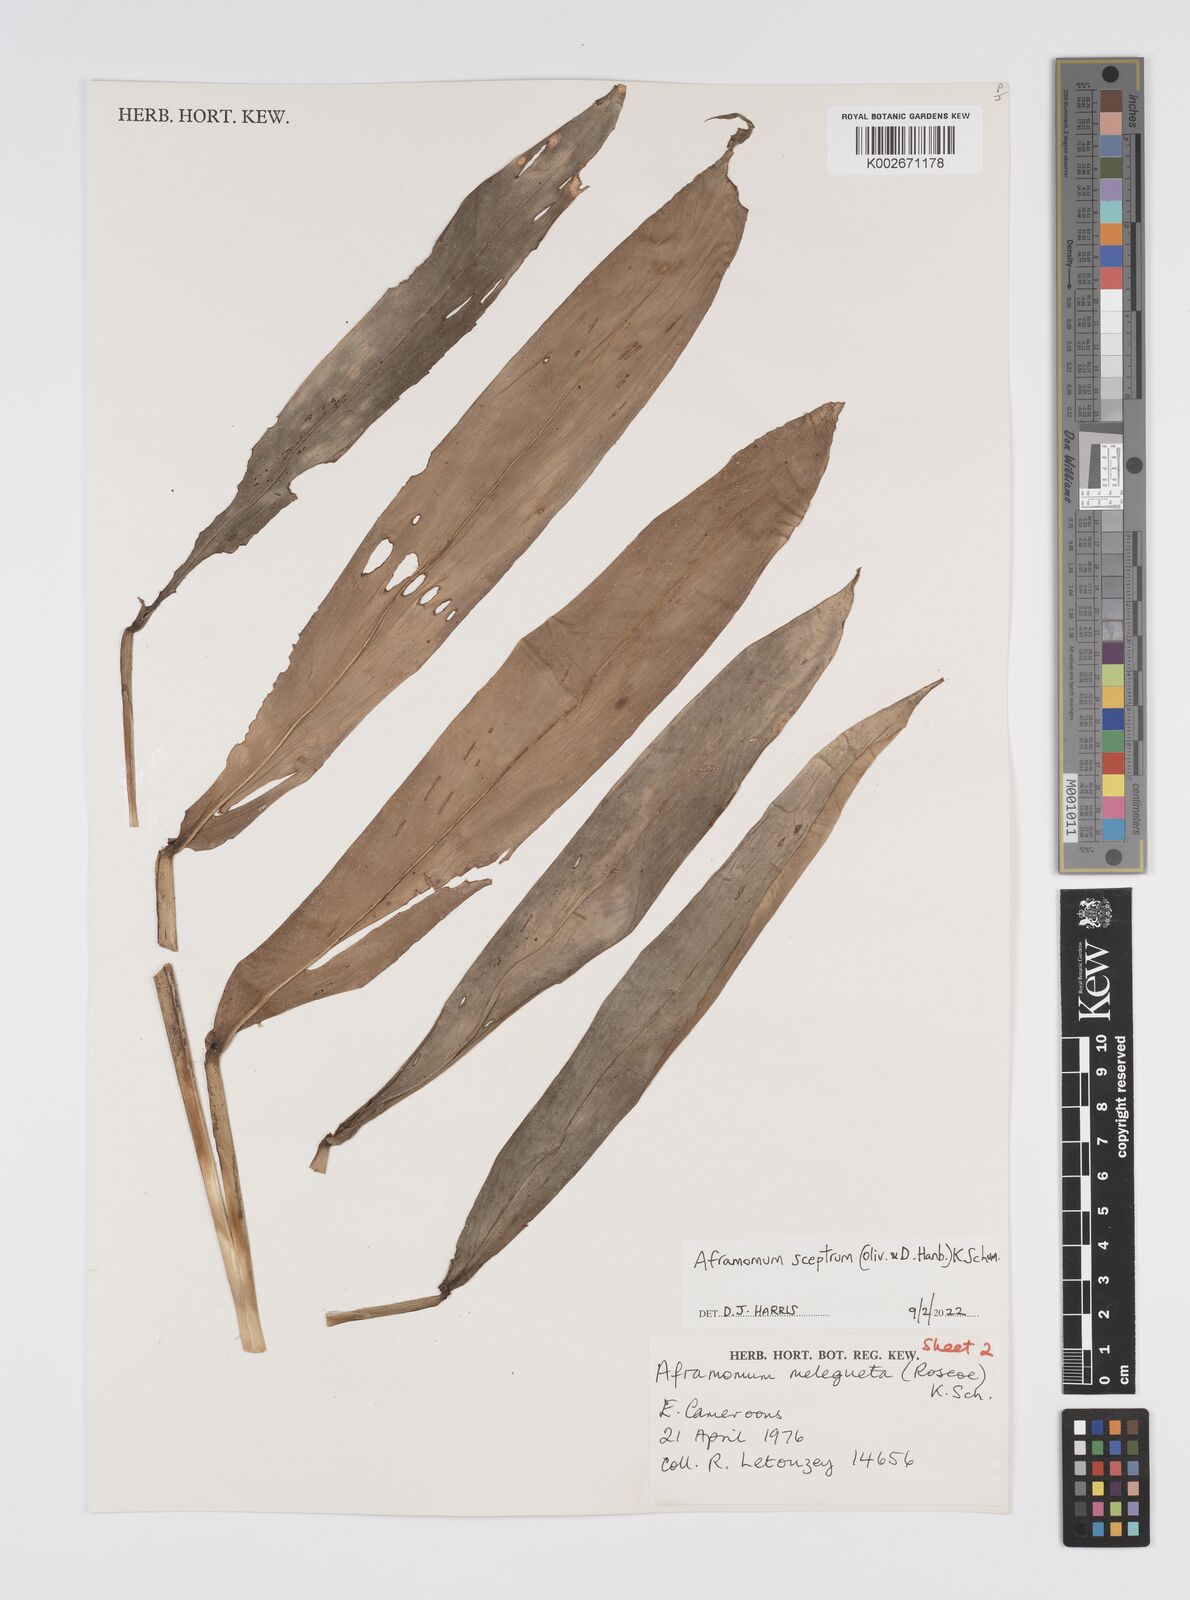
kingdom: Plantae
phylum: Tracheophyta
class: Liliopsida
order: Zingiberales
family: Zingiberaceae
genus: Aframomum
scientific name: Aframomum cereum
